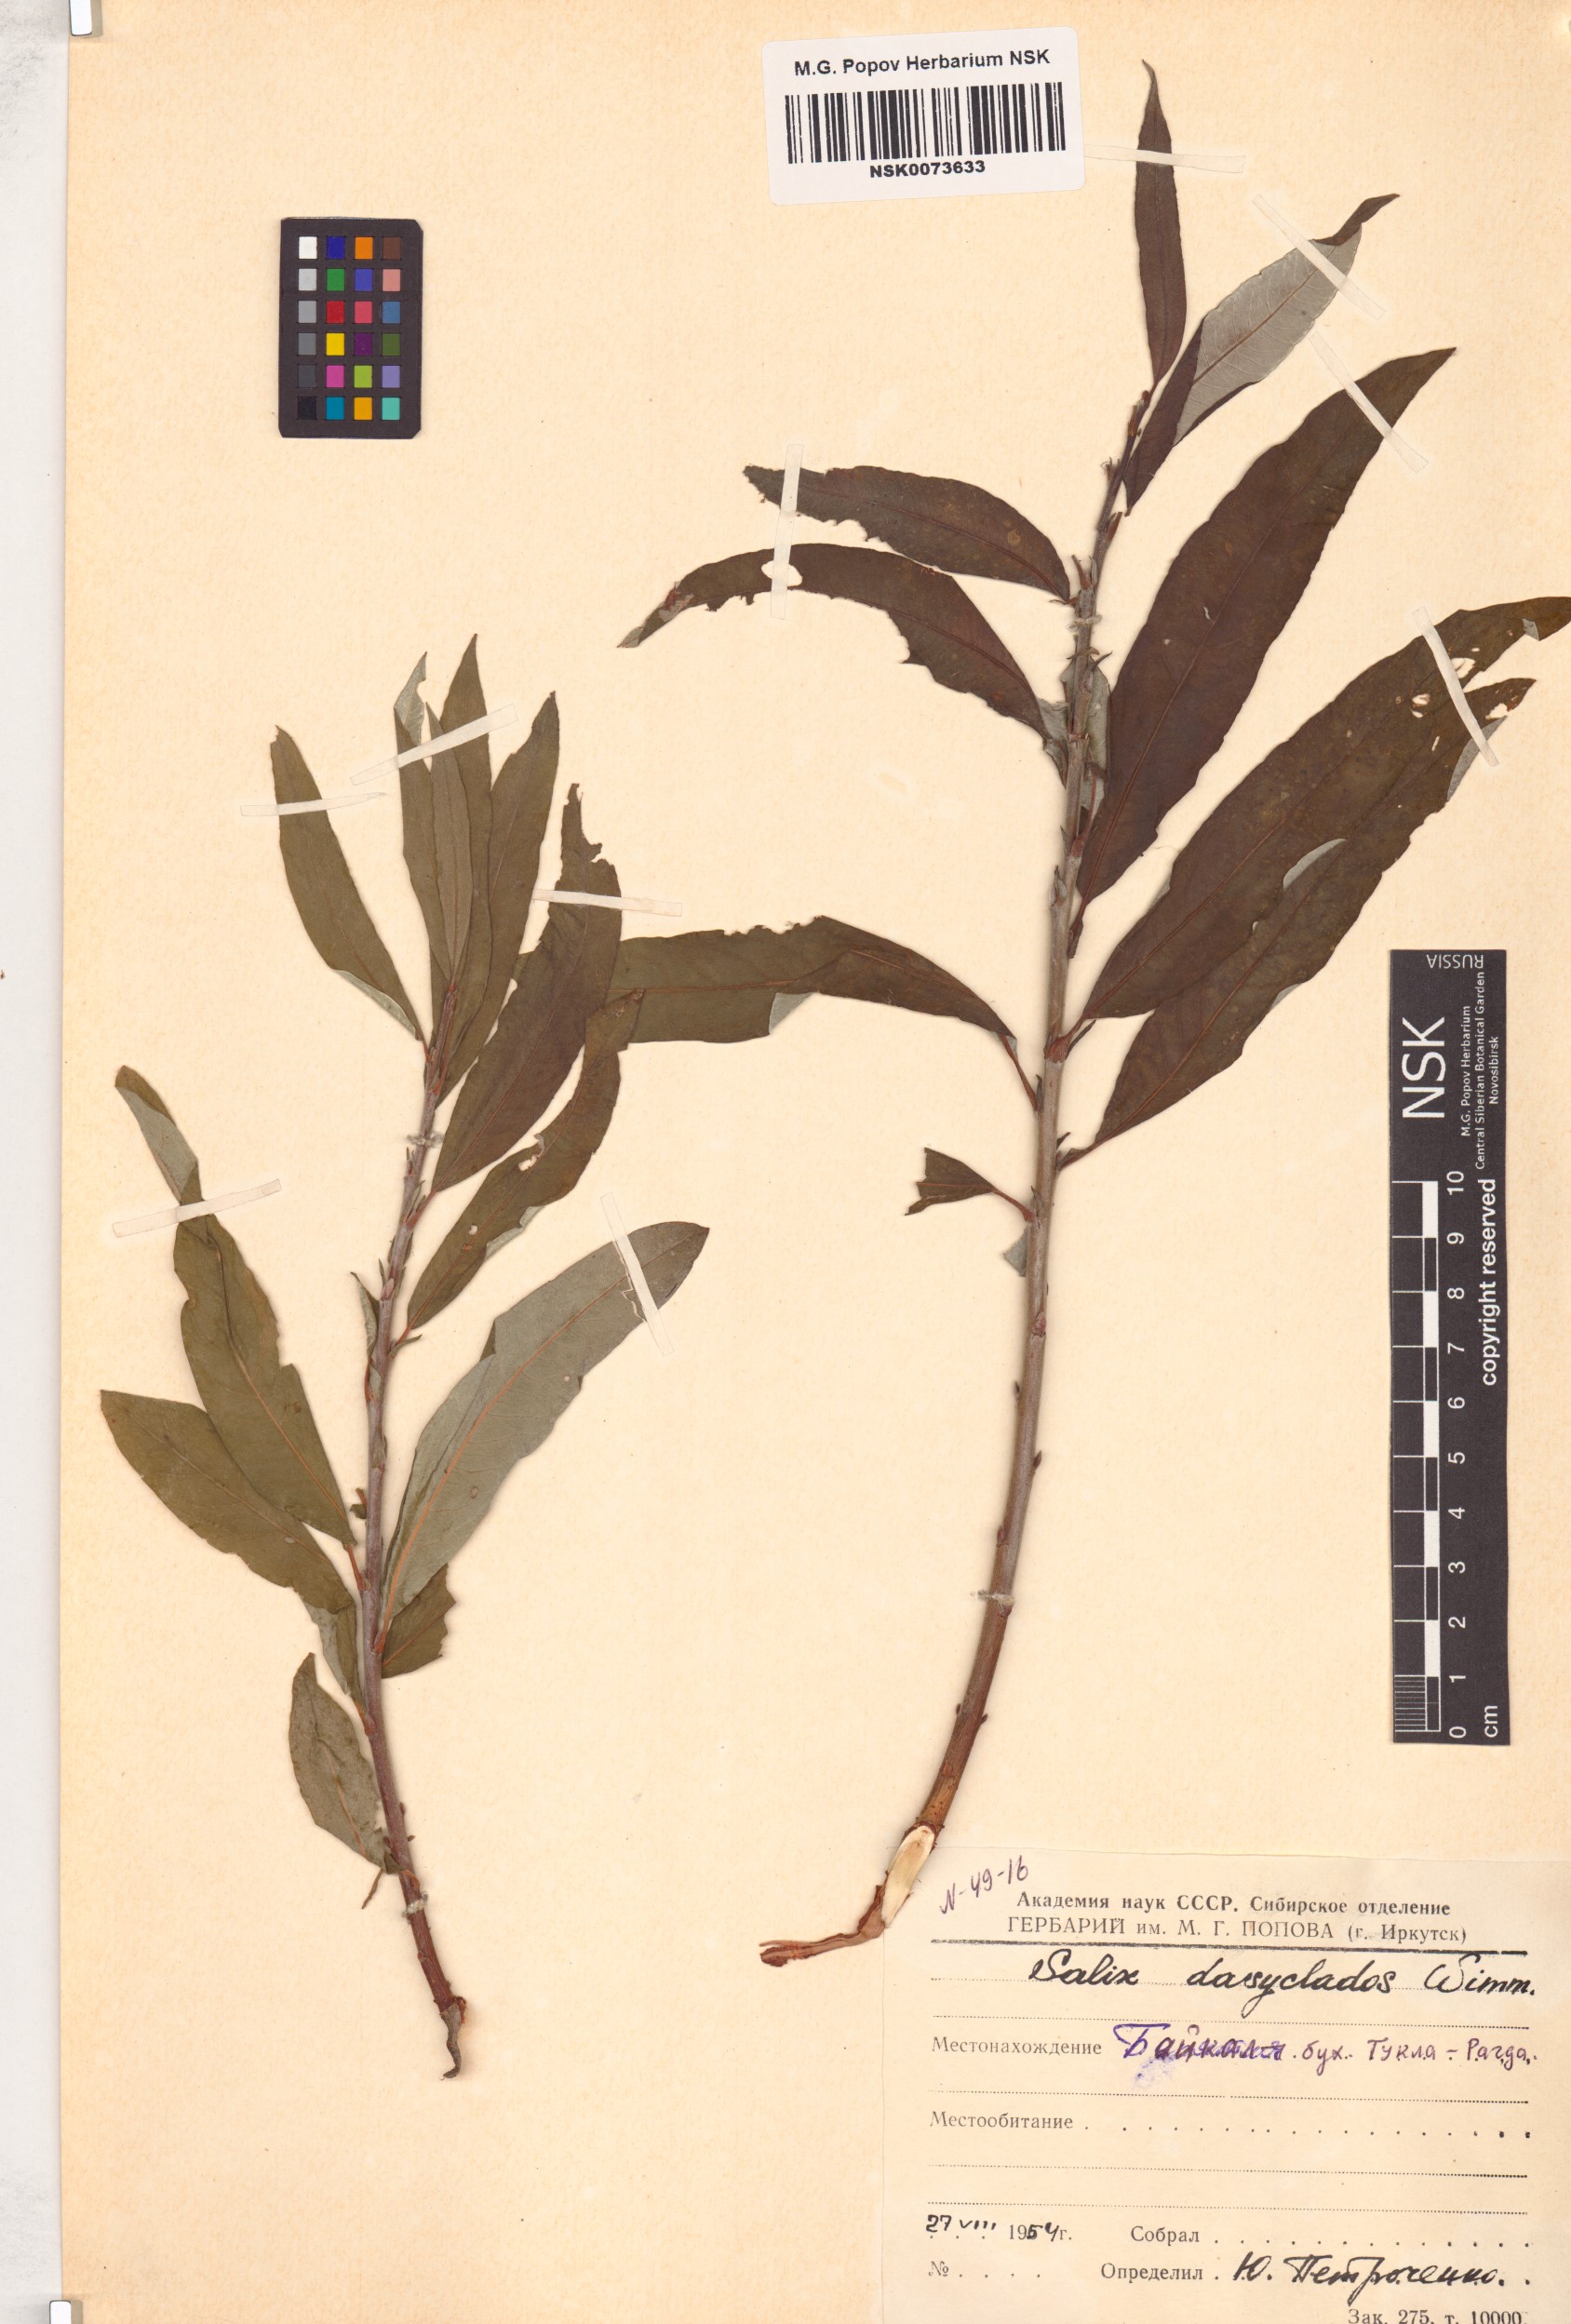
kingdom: Plantae
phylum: Tracheophyta
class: Magnoliopsida
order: Malpighiales
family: Salicaceae
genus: Salix
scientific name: Salix gmelinii
